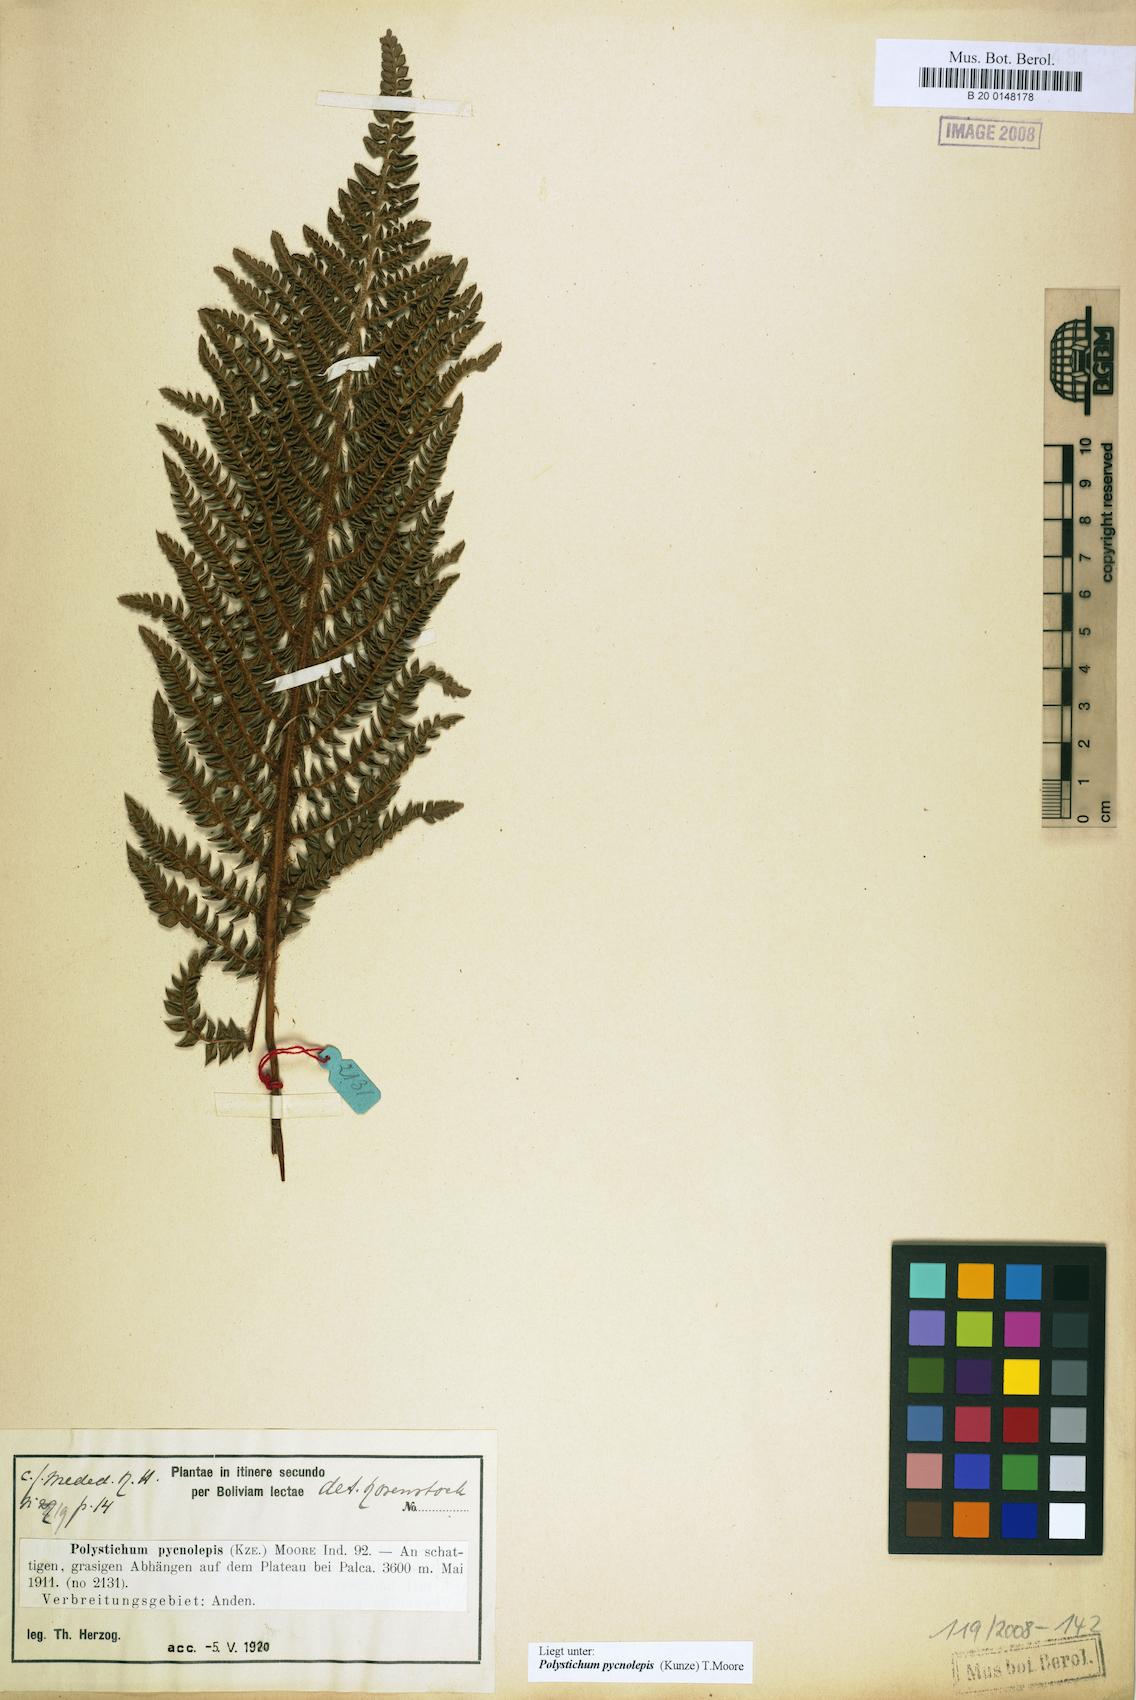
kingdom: Plantae
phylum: Tracheophyta
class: Polypodiopsida
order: Polypodiales
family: Dryopteridaceae
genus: Polystichum
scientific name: Polystichum pycnolepis
